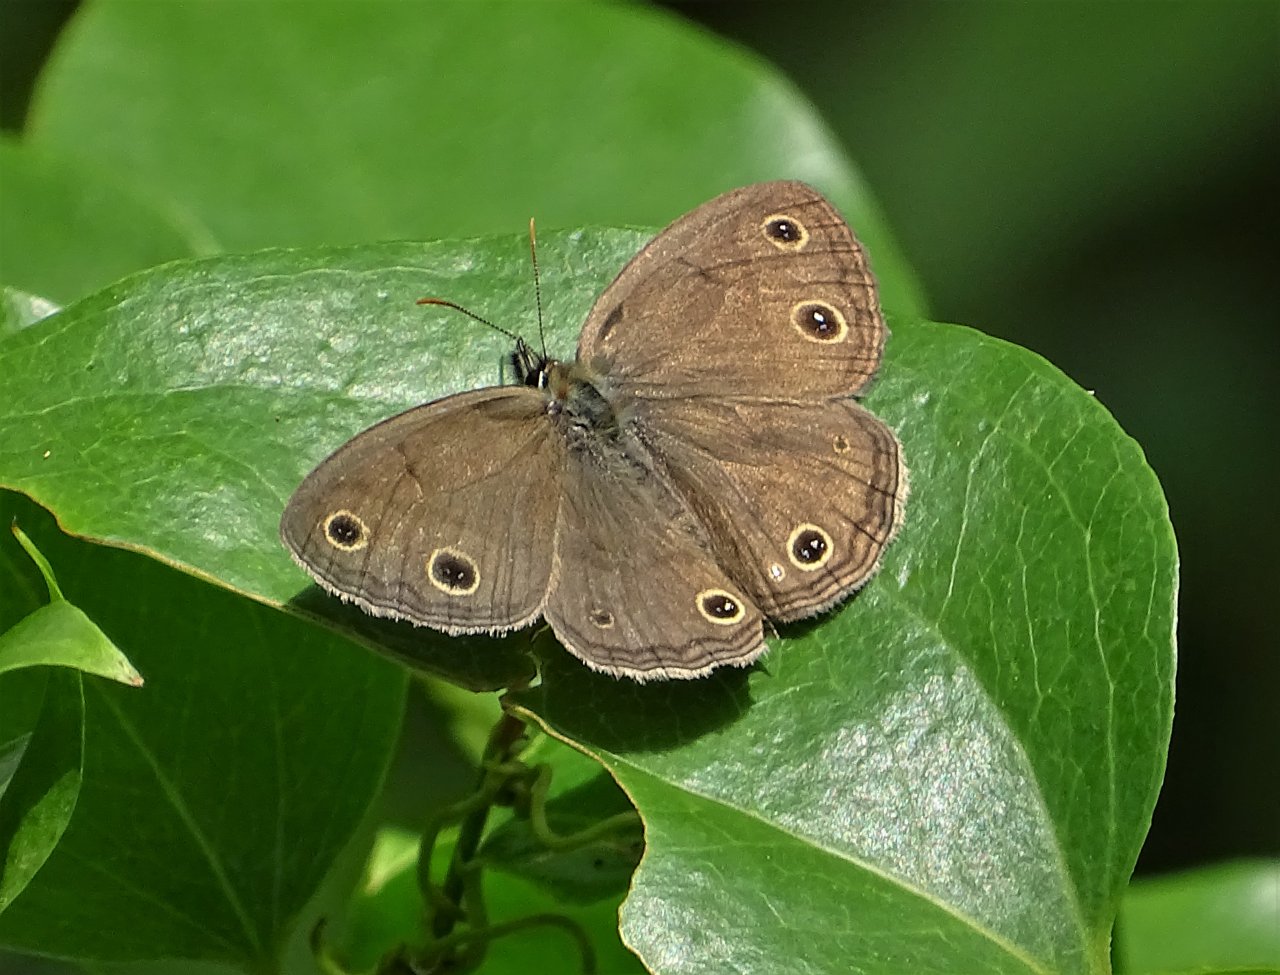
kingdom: Animalia
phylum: Arthropoda
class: Insecta
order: Lepidoptera
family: Nymphalidae
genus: Euptychia
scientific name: Euptychia cymela
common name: Little Wood Satyr
